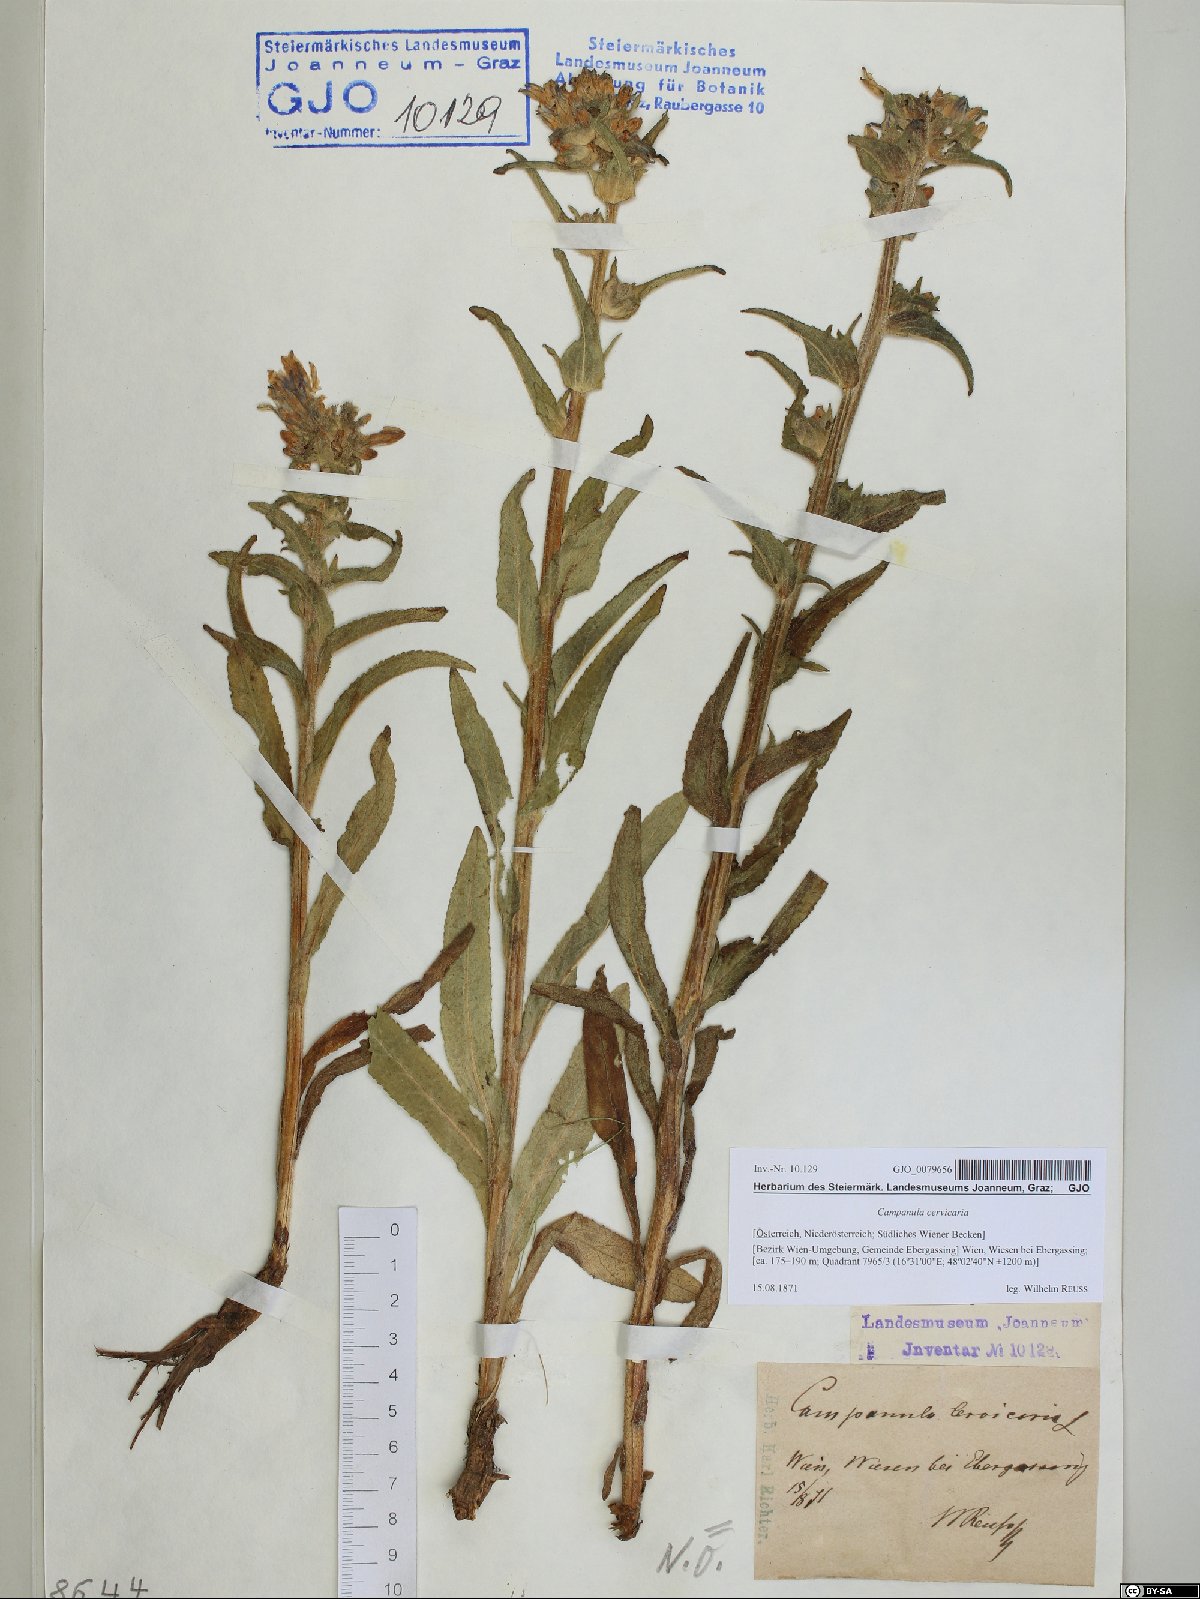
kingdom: Plantae
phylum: Tracheophyta
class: Magnoliopsida
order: Asterales
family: Campanulaceae
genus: Campanula
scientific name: Campanula cervicaria
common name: Bristly bellflower
